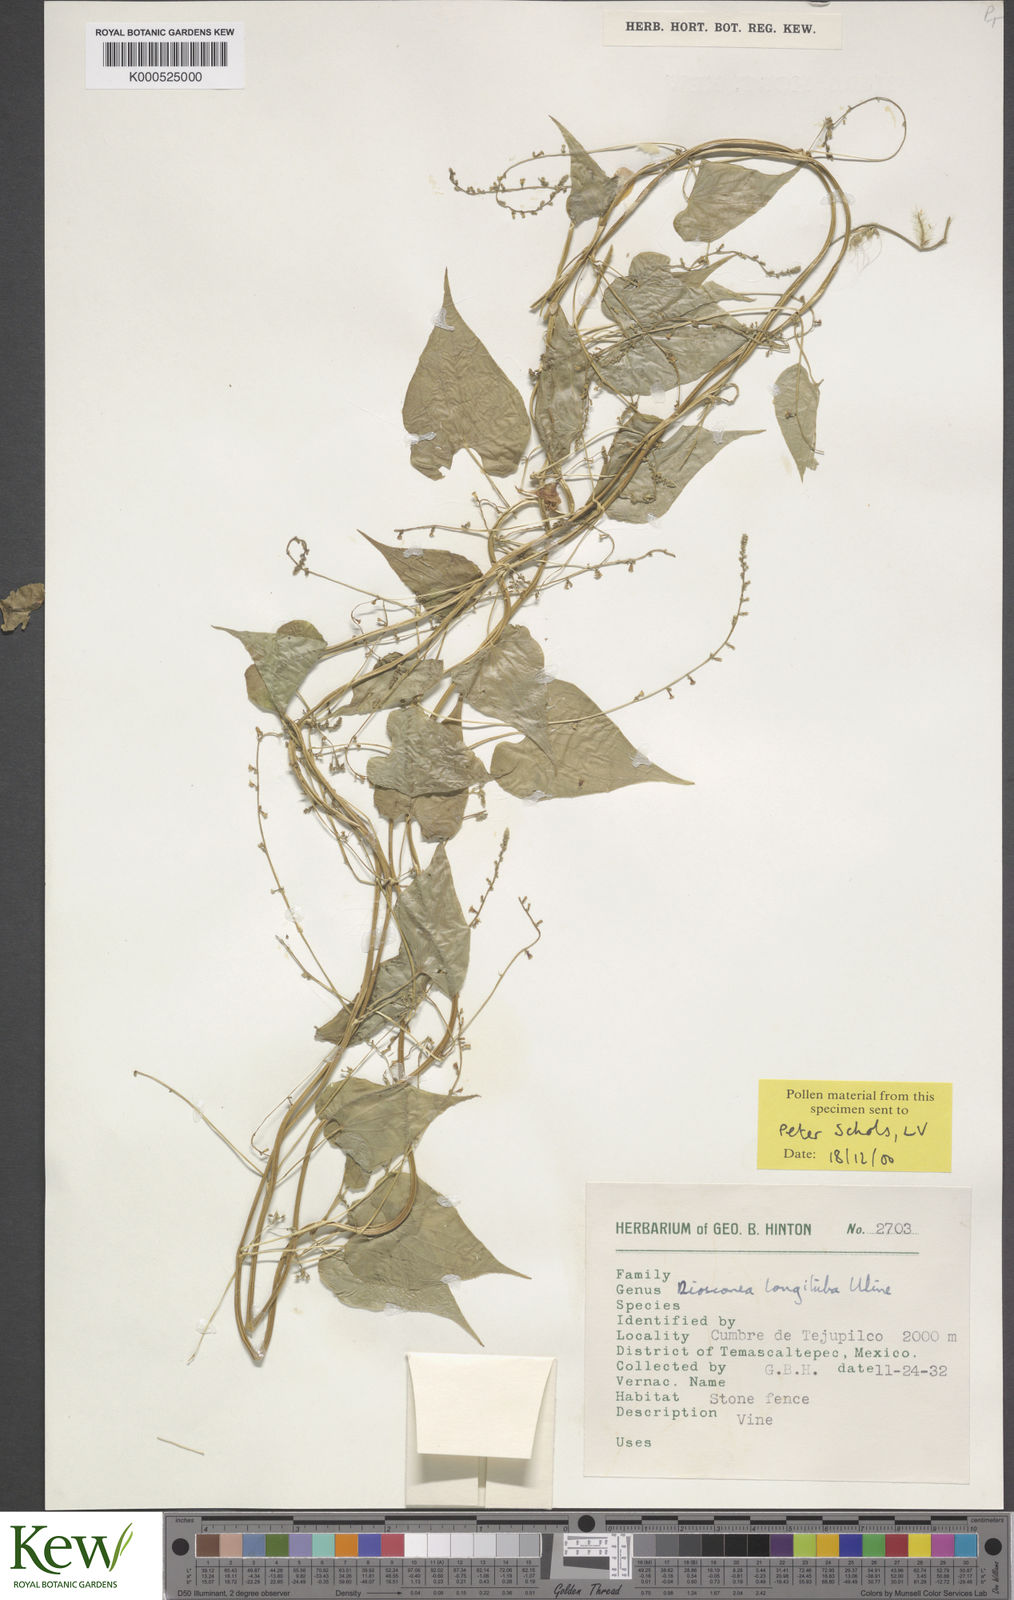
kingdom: Plantae
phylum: Tracheophyta
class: Liliopsida
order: Dioscoreales
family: Dioscoreaceae
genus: Dioscorea
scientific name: Dioscorea longituba
